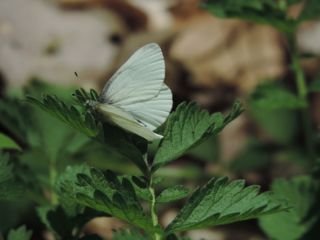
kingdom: Animalia
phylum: Arthropoda
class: Insecta
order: Lepidoptera
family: Pieridae
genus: Pieris
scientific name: Pieris virginiensis
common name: West Virginia White
